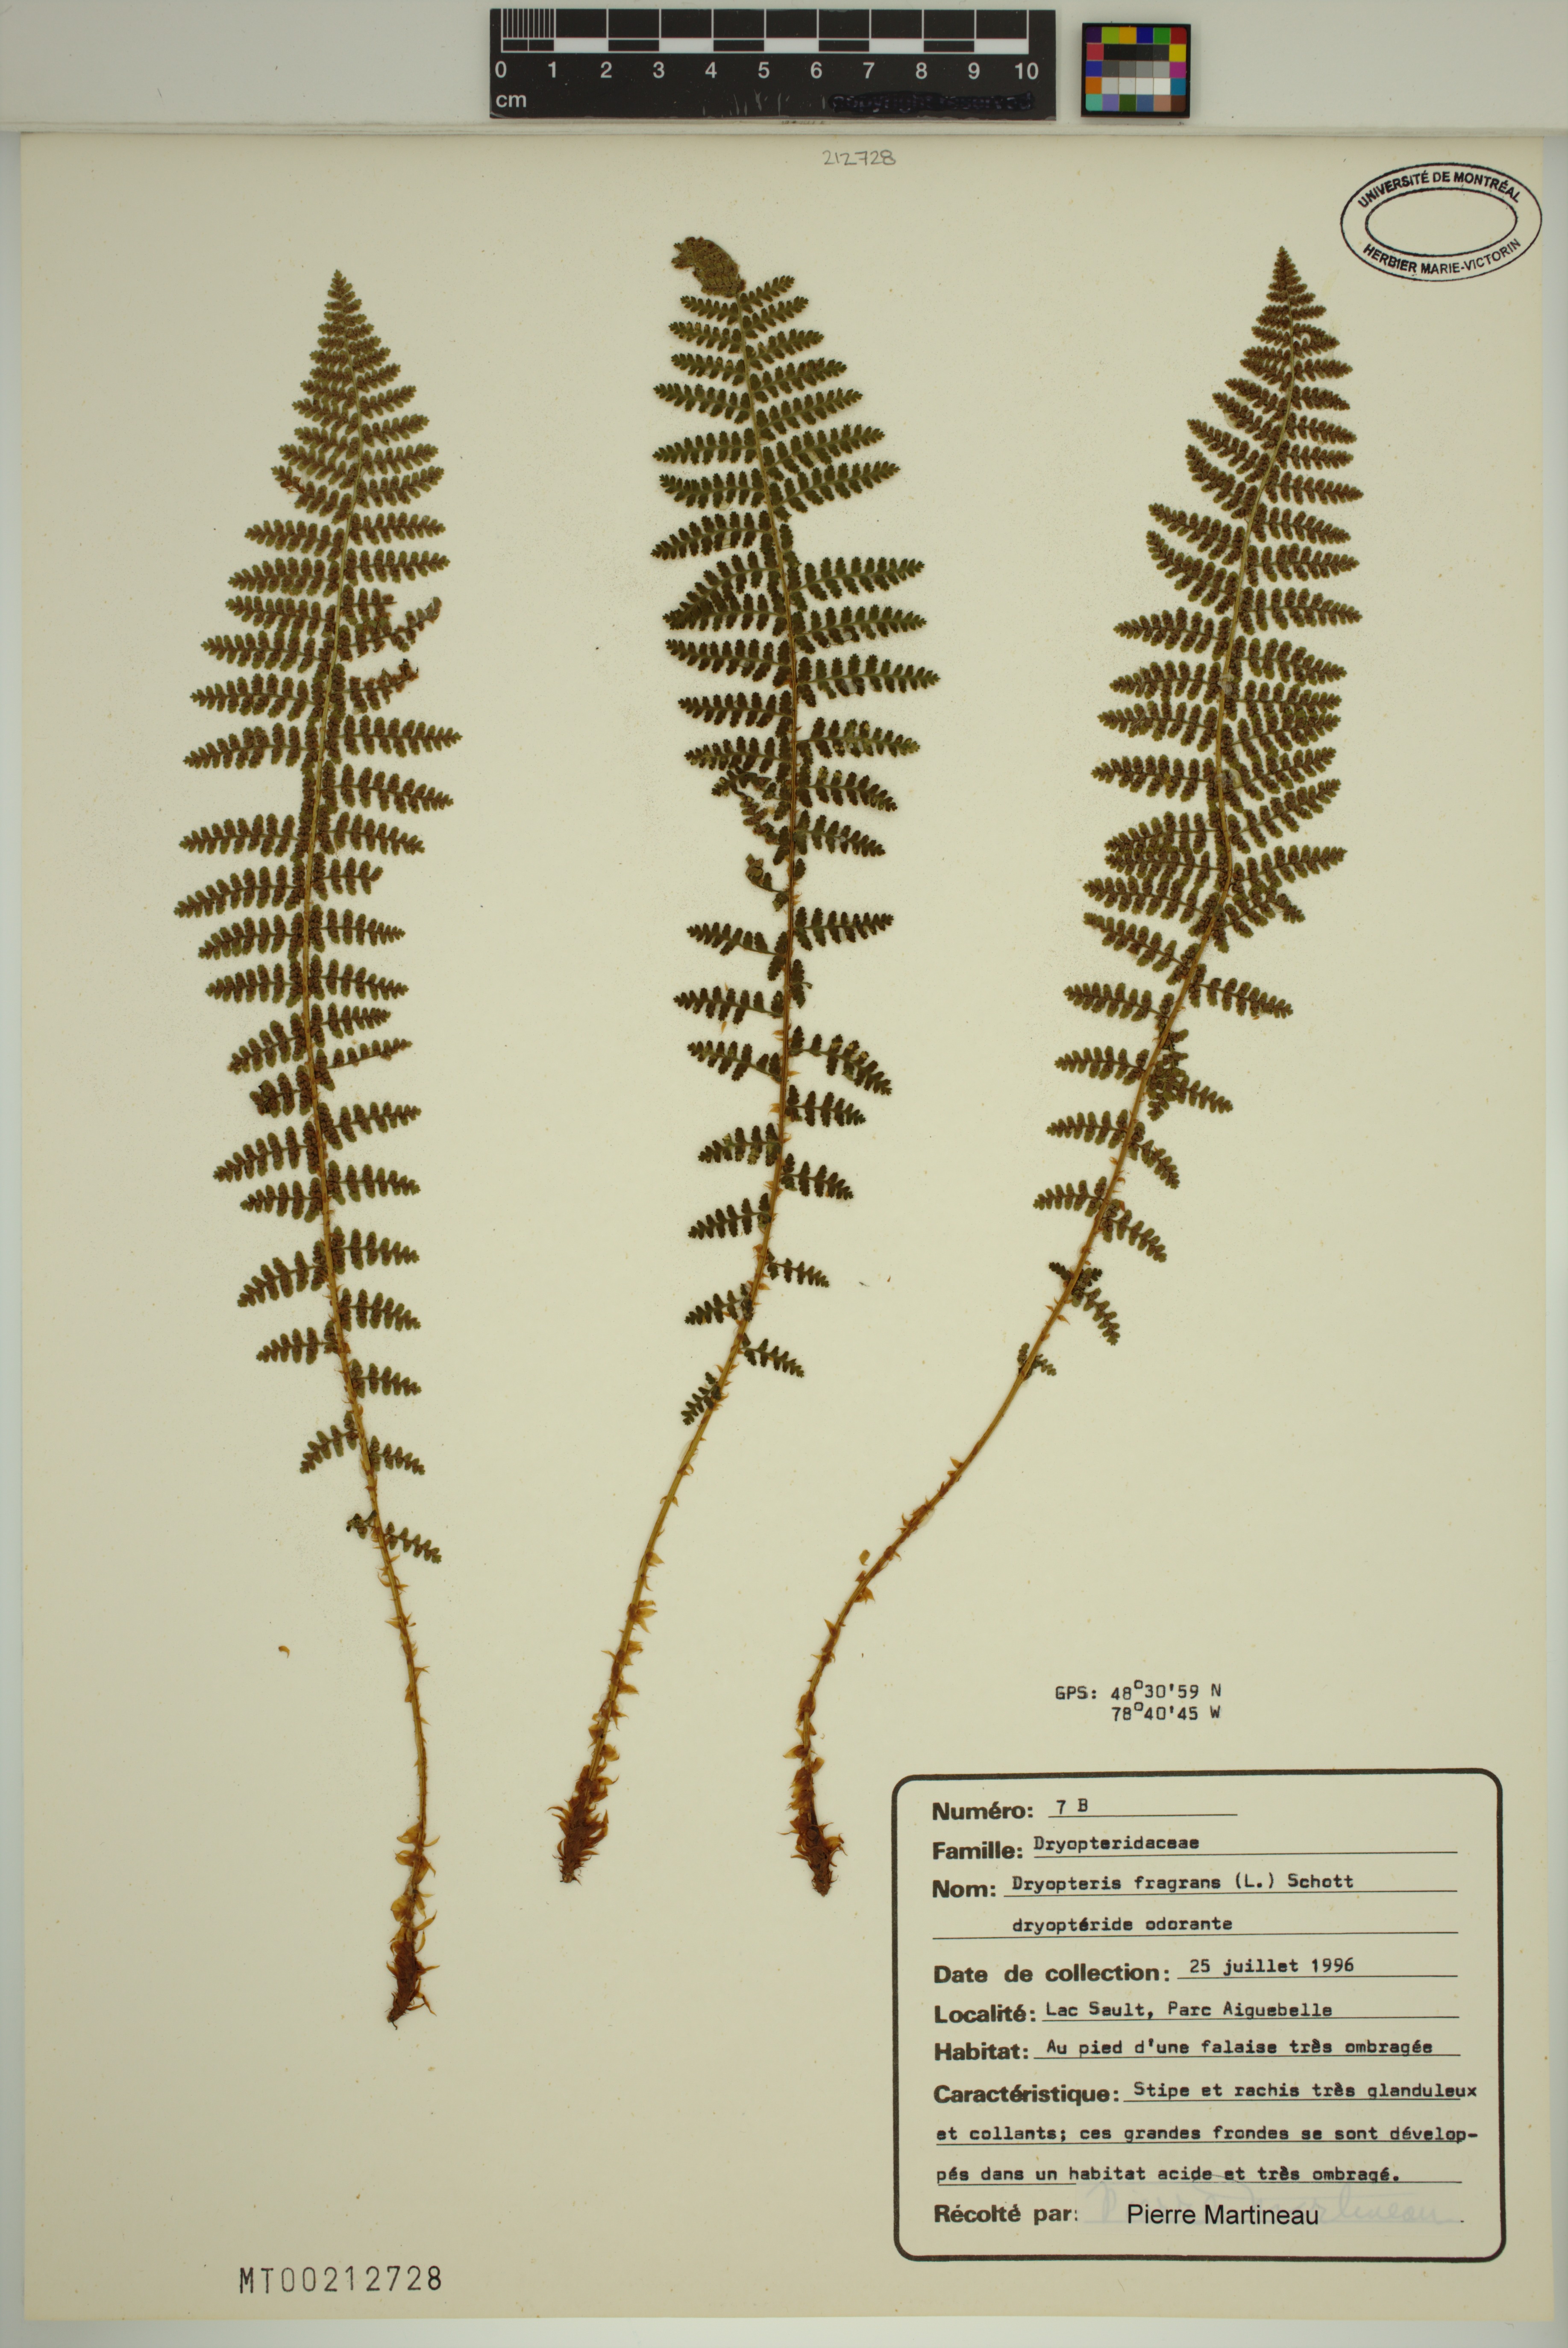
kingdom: Plantae
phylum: Tracheophyta
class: Polypodiopsida
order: Polypodiales
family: Dryopteridaceae
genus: Dryopteris
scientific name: Dryopteris fragrans
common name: Fragrant wood fern
